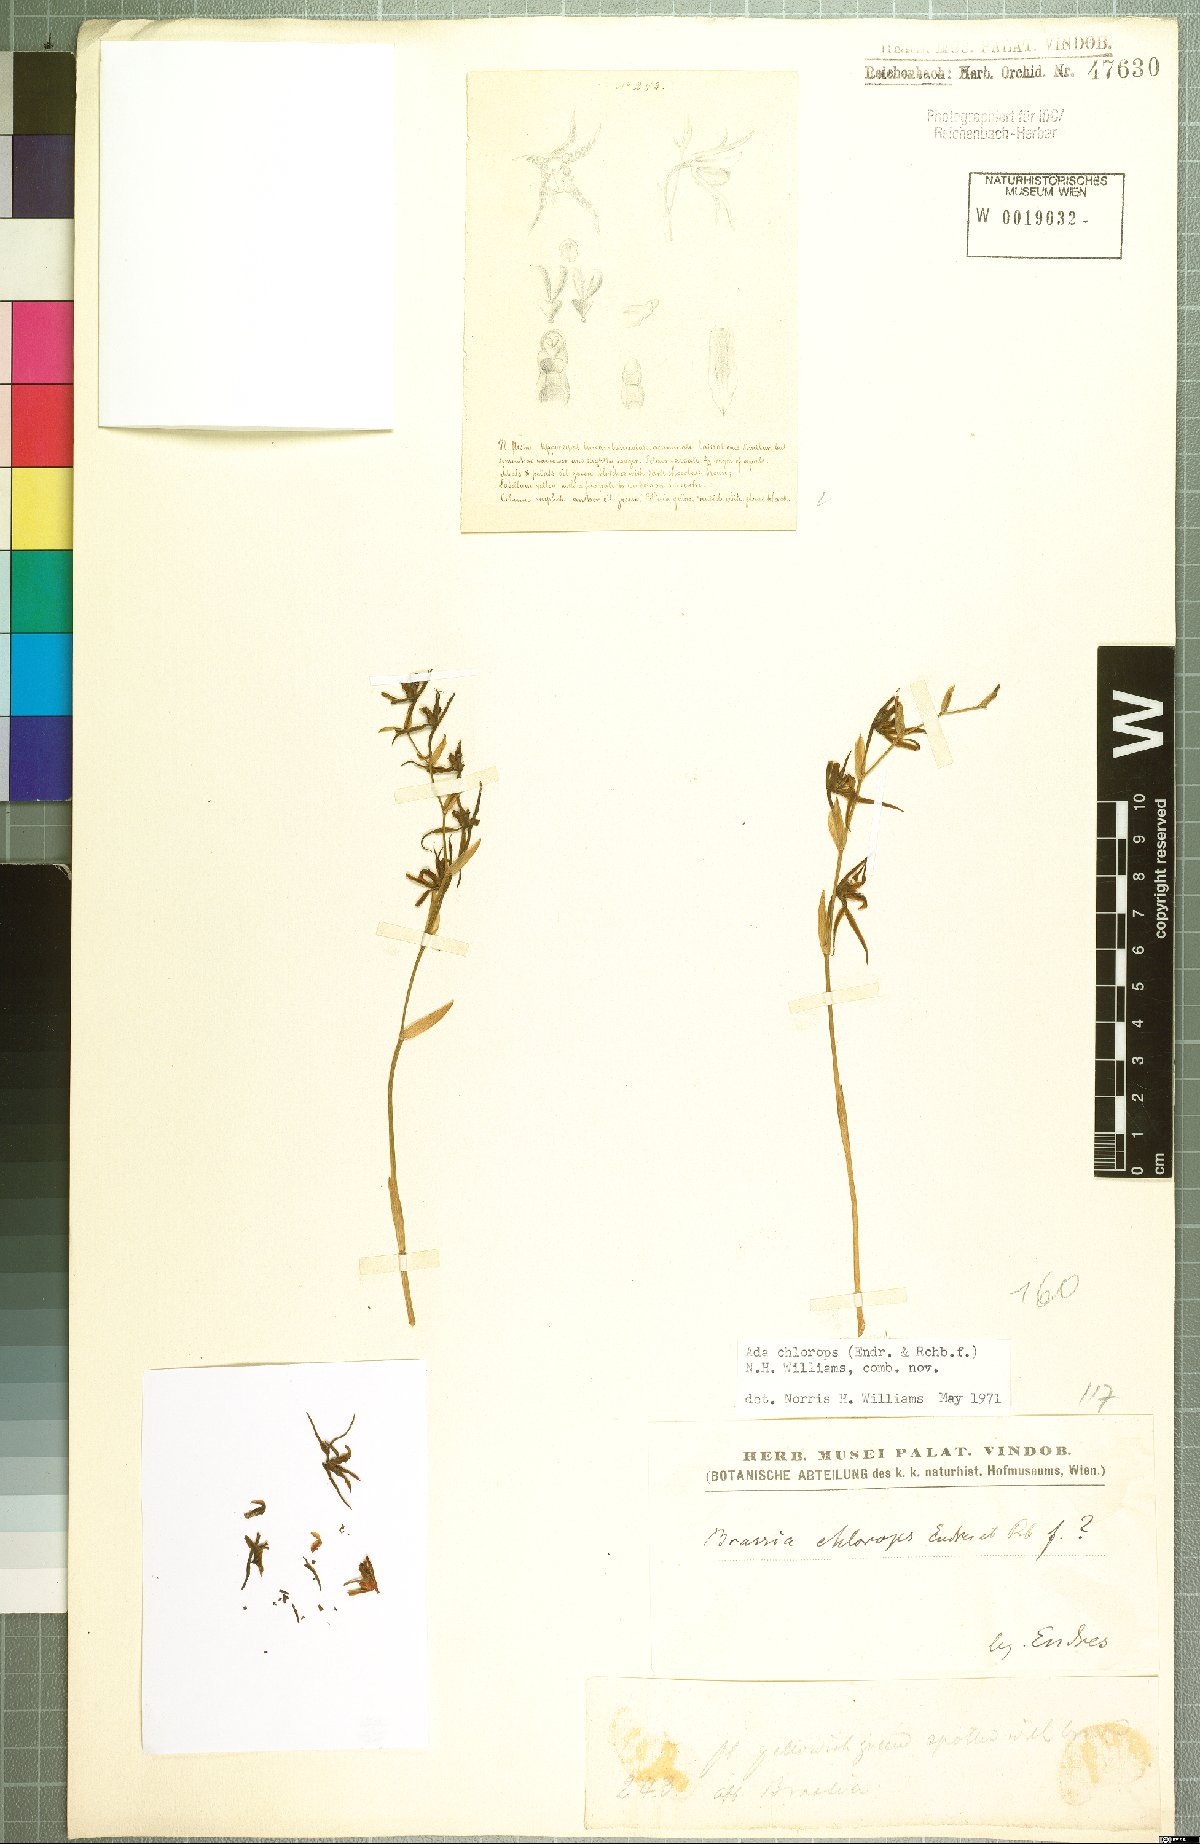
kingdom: Plantae
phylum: Tracheophyta
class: Liliopsida
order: Asparagales
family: Orchidaceae
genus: Brassia
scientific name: Brassia chlorops
